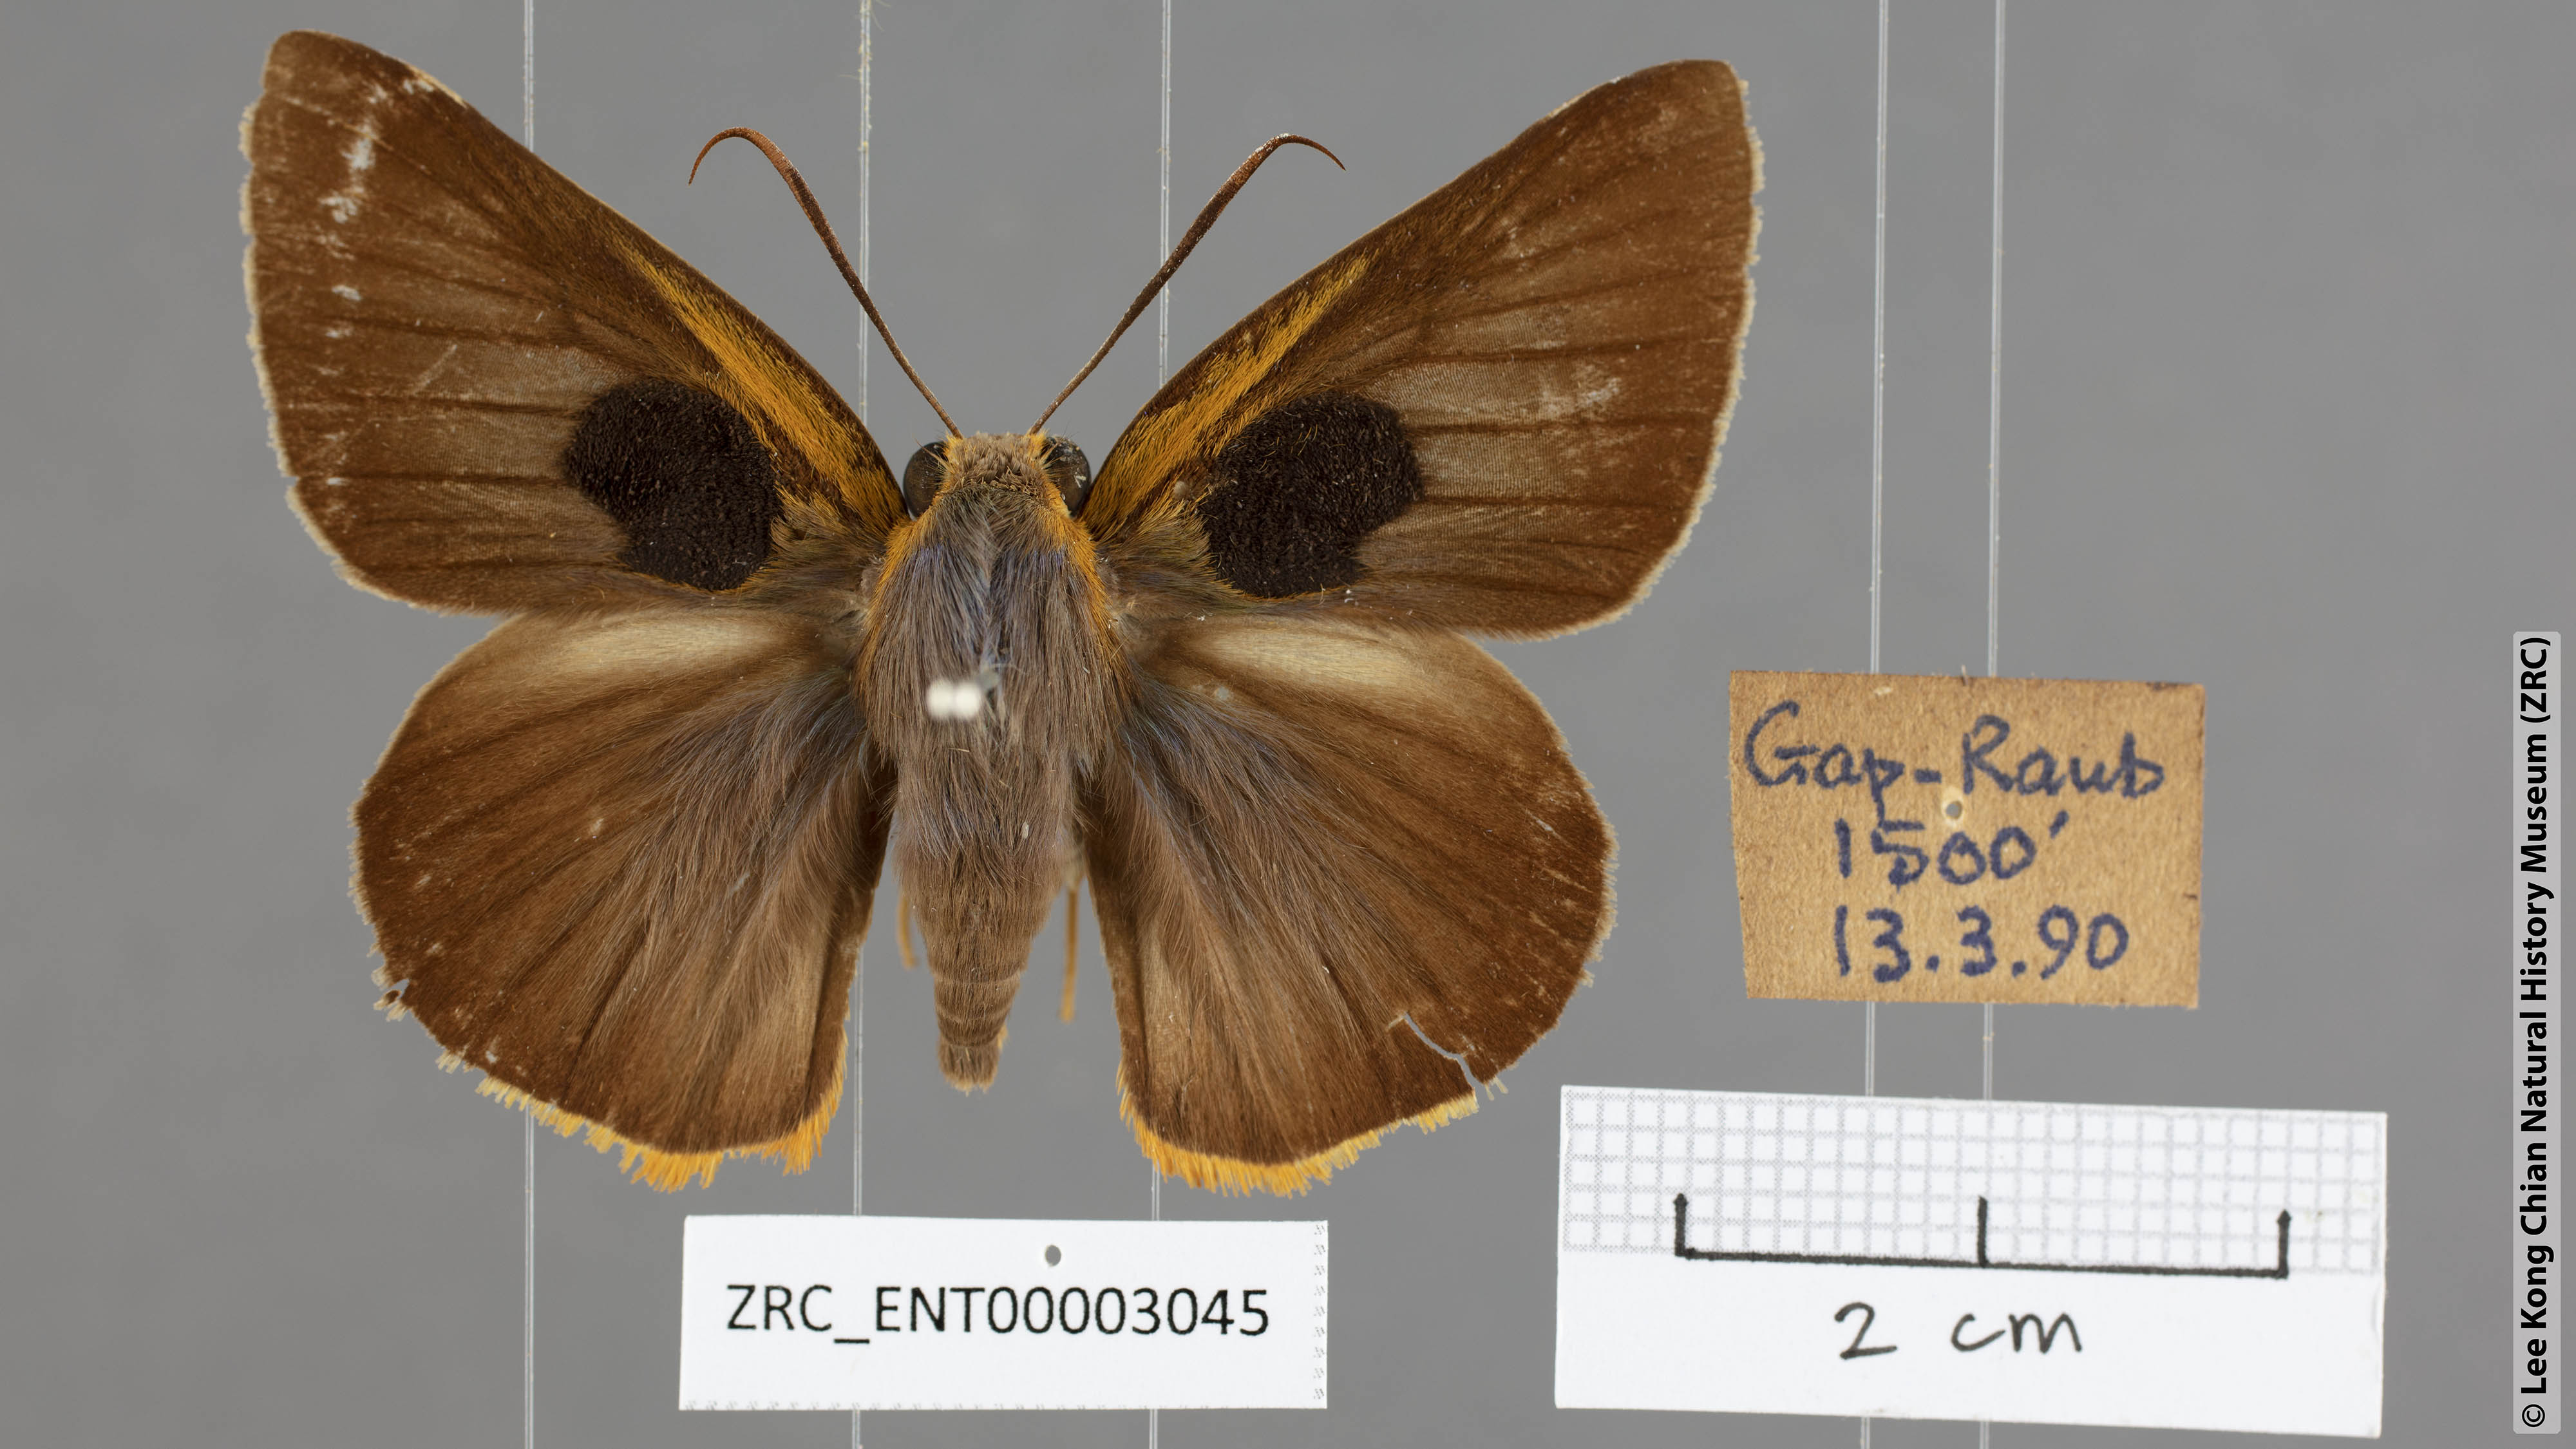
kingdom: Animalia
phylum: Arthropoda
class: Insecta
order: Lepidoptera
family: Hesperiidae
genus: Bibasis
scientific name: Bibasis Burara tuckeri
